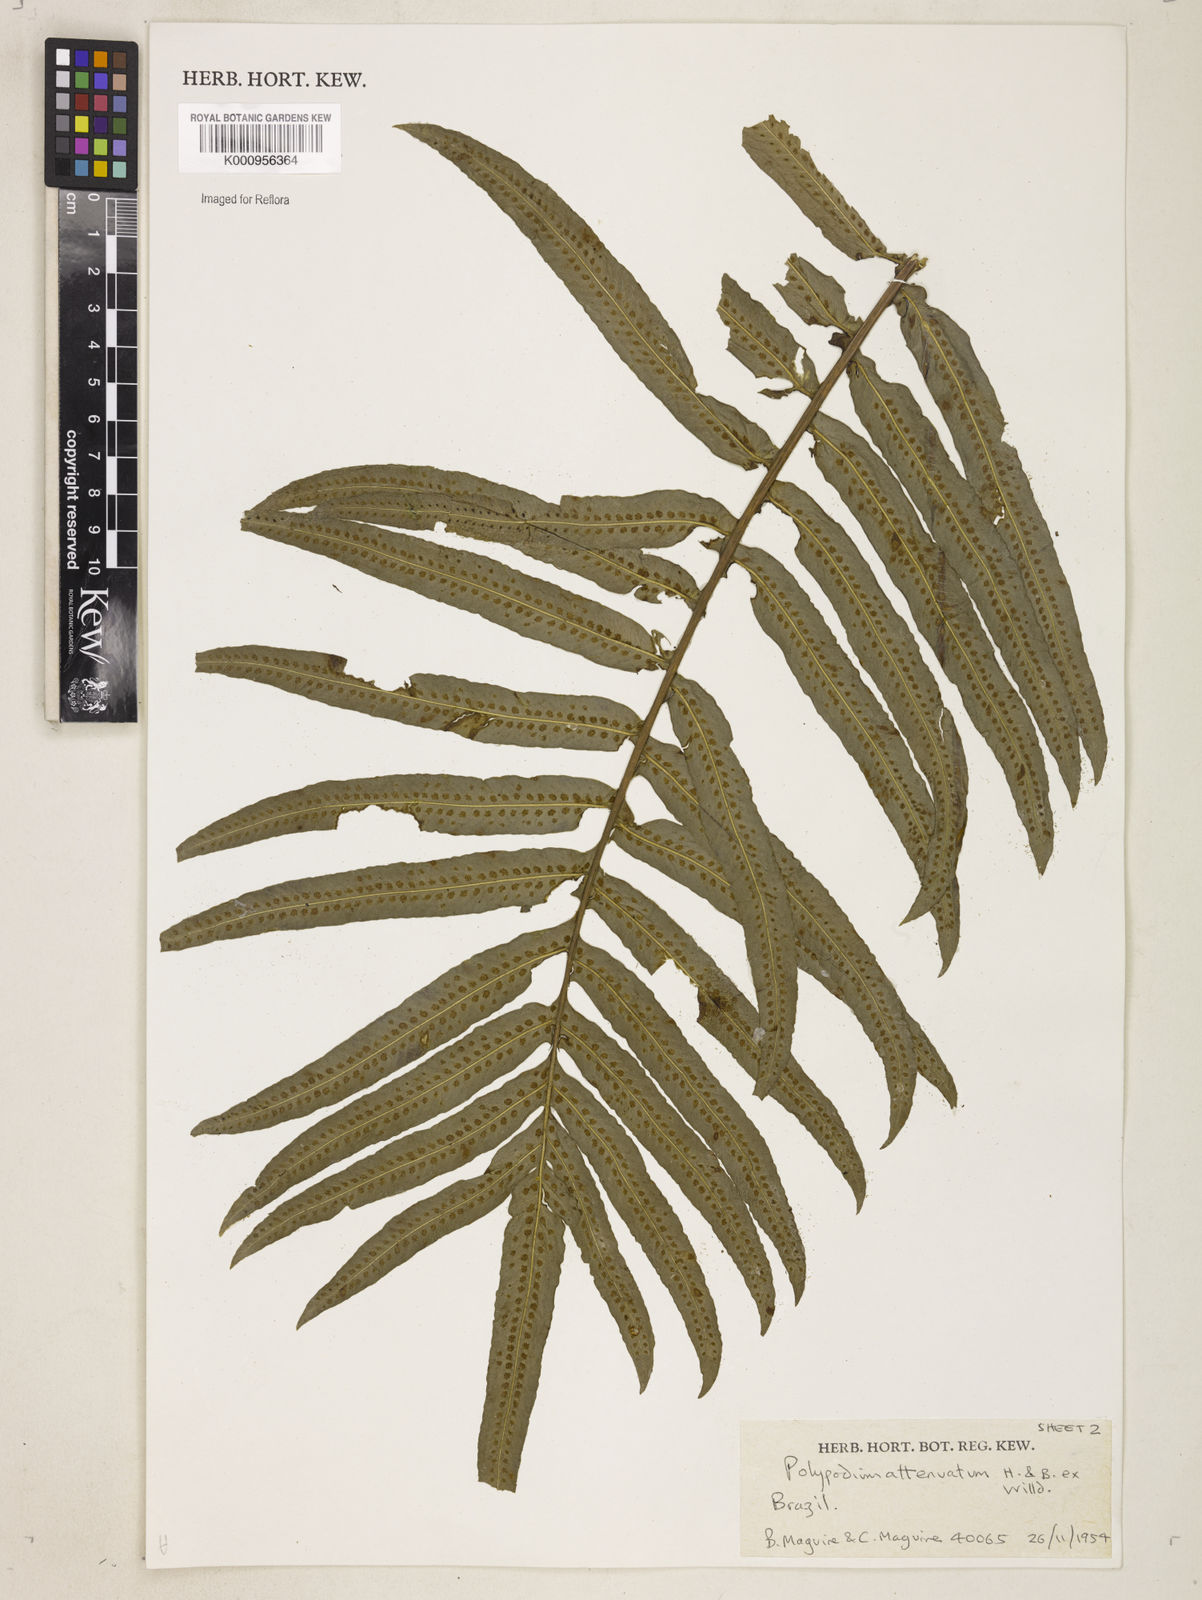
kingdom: Plantae
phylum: Tracheophyta
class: Polypodiopsida
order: Polypodiales
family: Polypodiaceae
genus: Serpocaulon
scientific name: Serpocaulon triseriale
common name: Angle-vein fern
